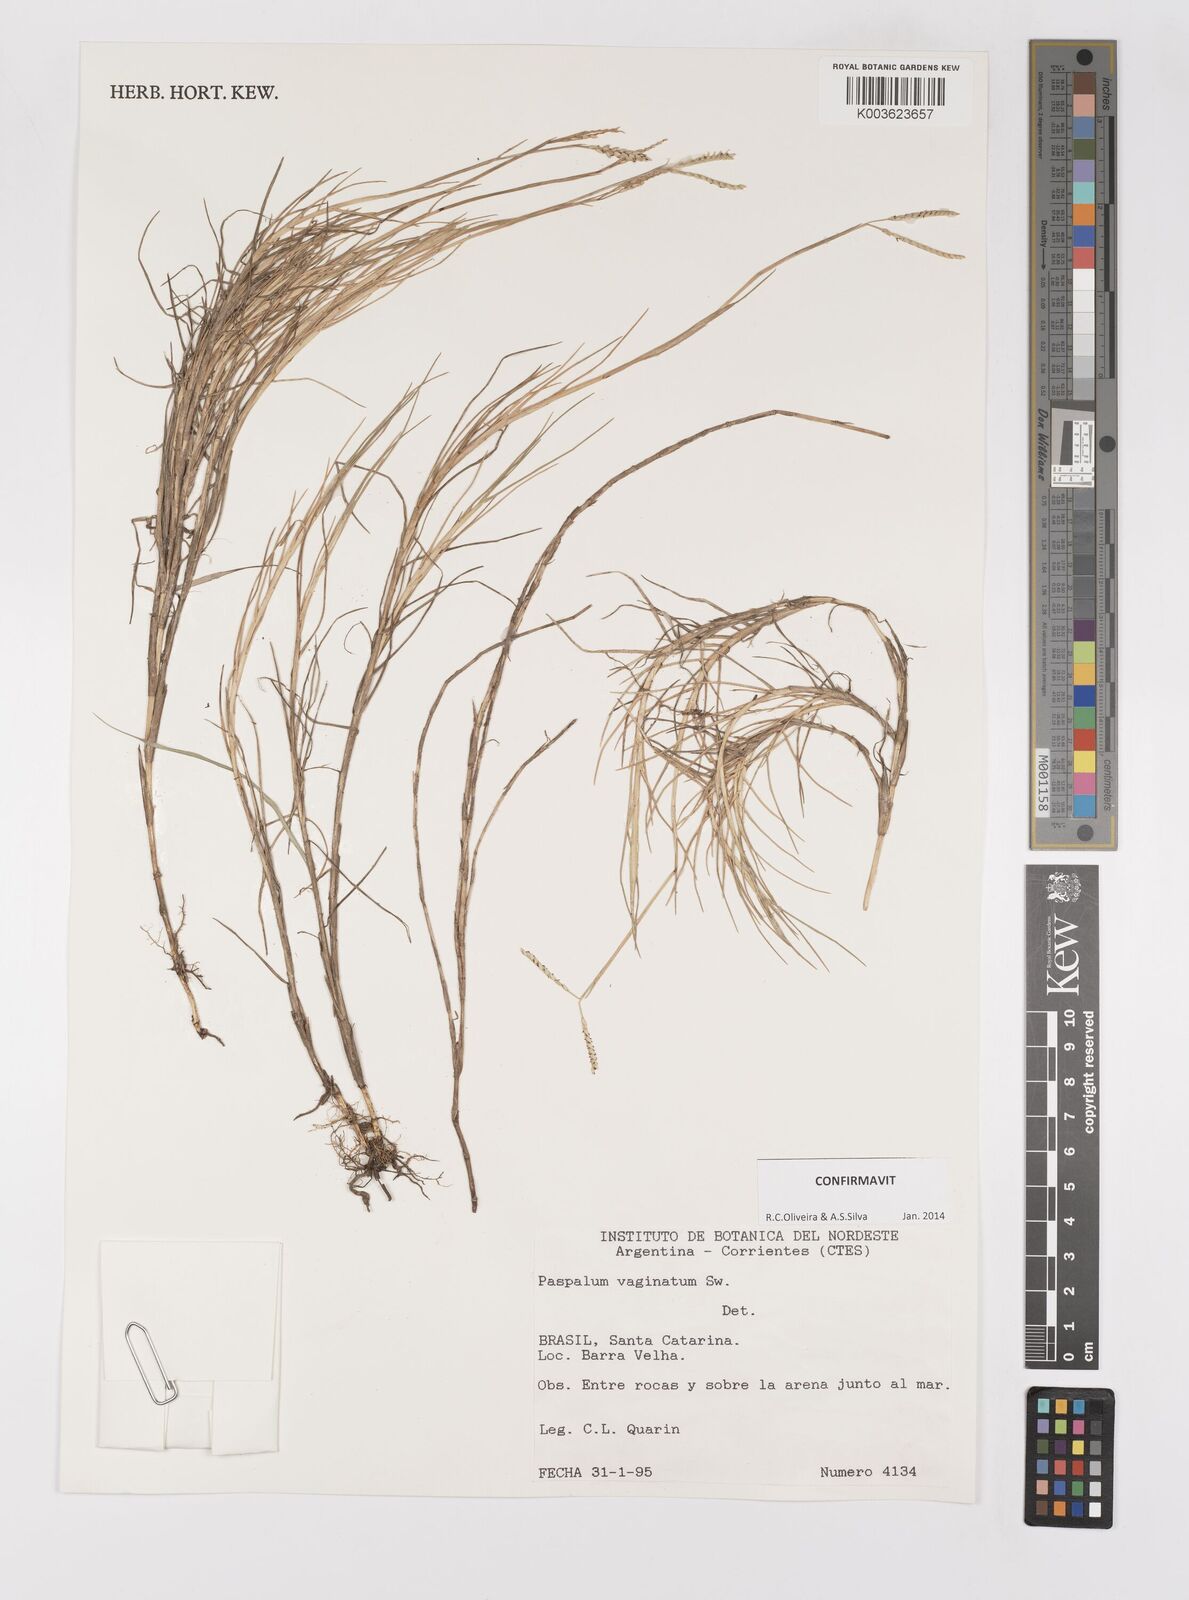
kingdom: Plantae
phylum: Tracheophyta
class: Liliopsida
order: Poales
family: Poaceae
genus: Paspalum
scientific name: Paspalum vaginatum
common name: Seashore paspalum
